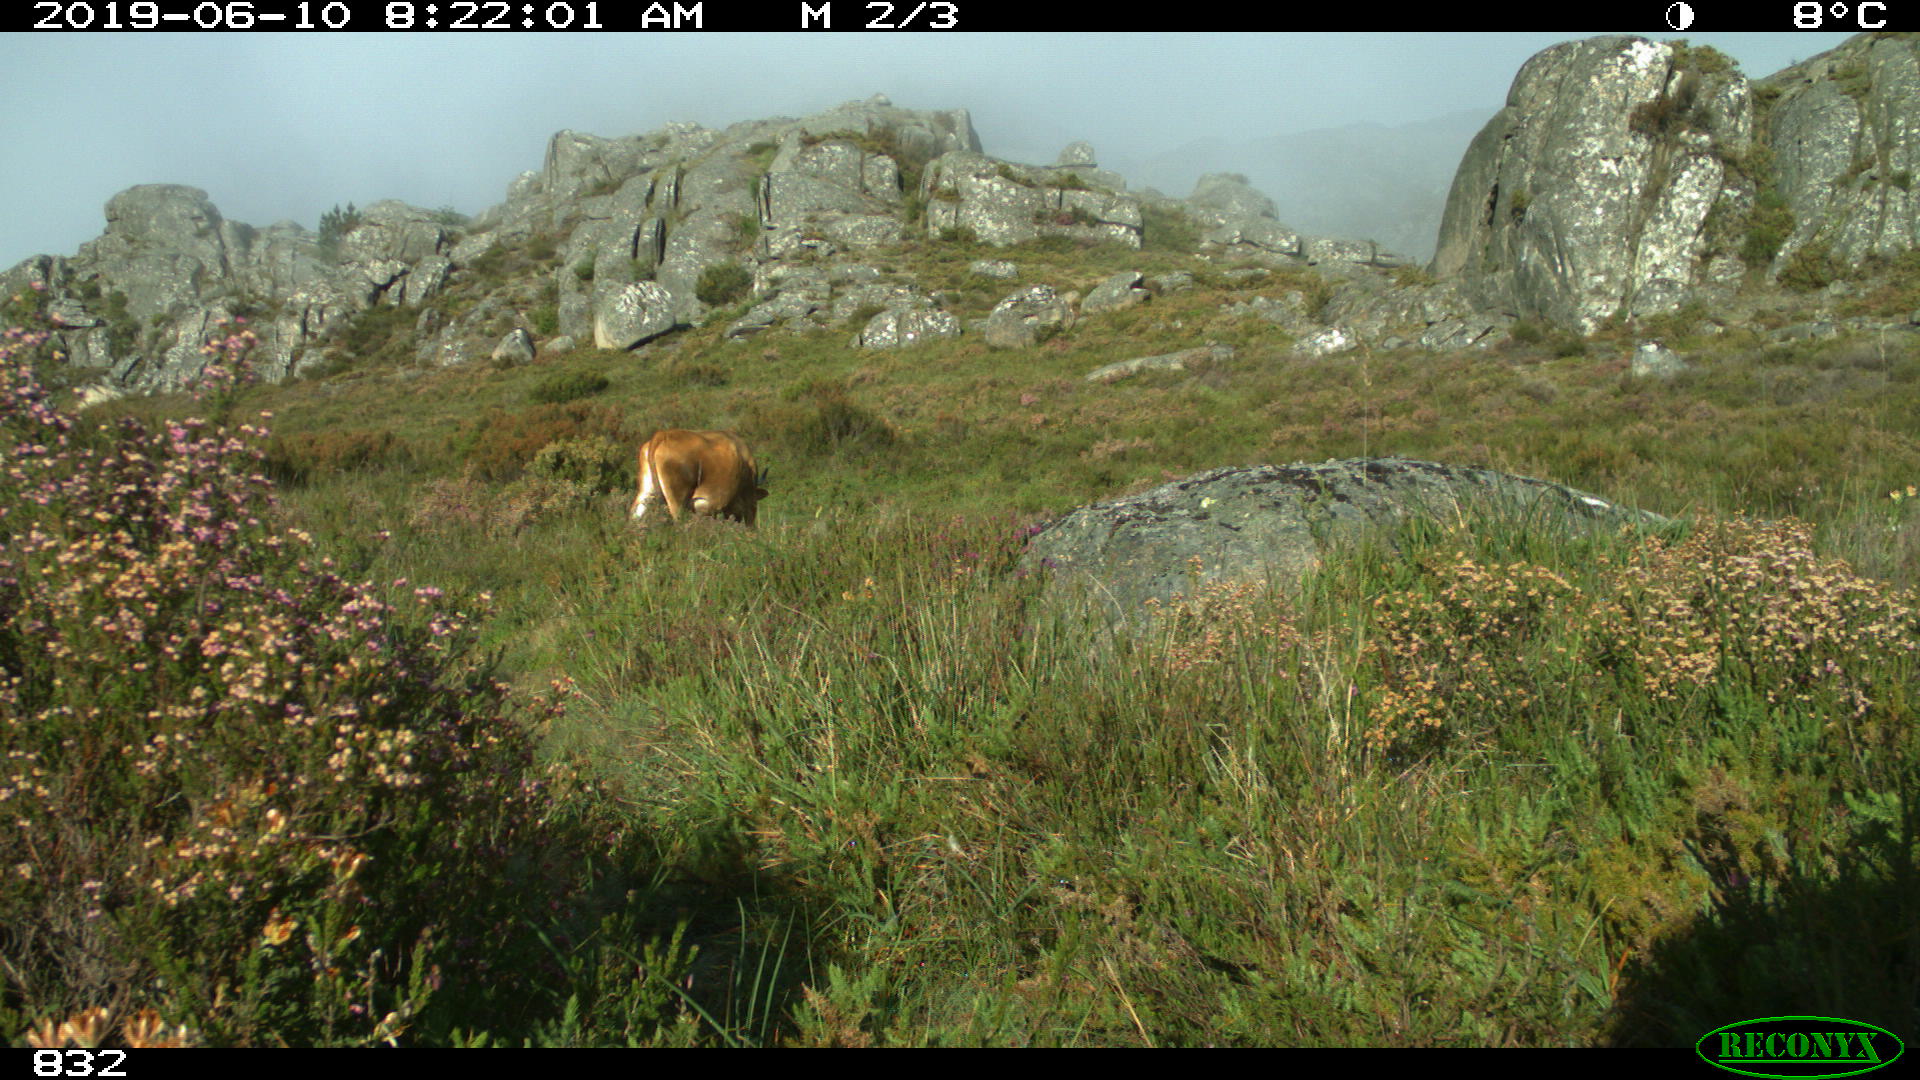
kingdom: Animalia
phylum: Chordata
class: Mammalia
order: Artiodactyla
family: Bovidae
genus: Bos
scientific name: Bos taurus
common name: Domesticated cattle
